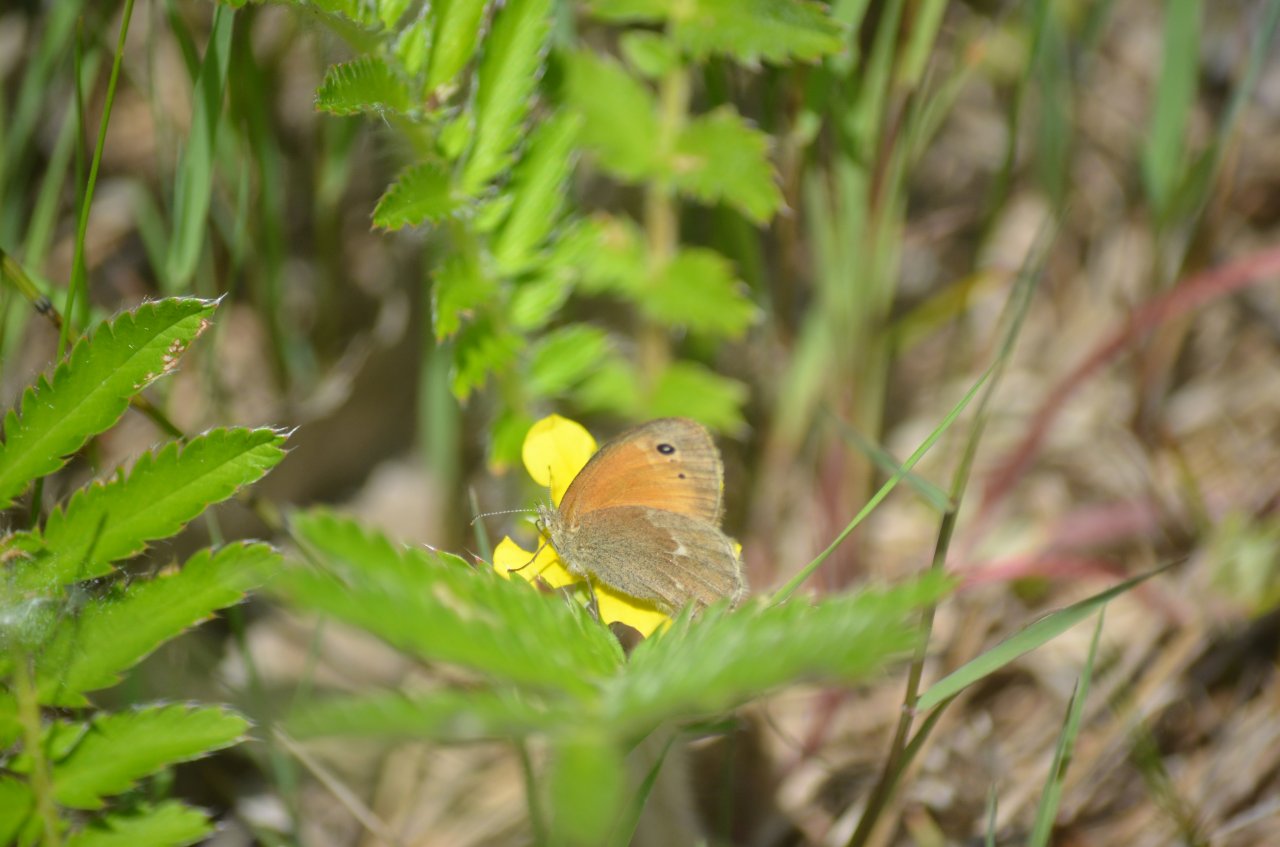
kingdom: Animalia
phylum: Arthropoda
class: Insecta
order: Lepidoptera
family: Nymphalidae
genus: Coenonympha
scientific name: Coenonympha tullia
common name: Large Heath
